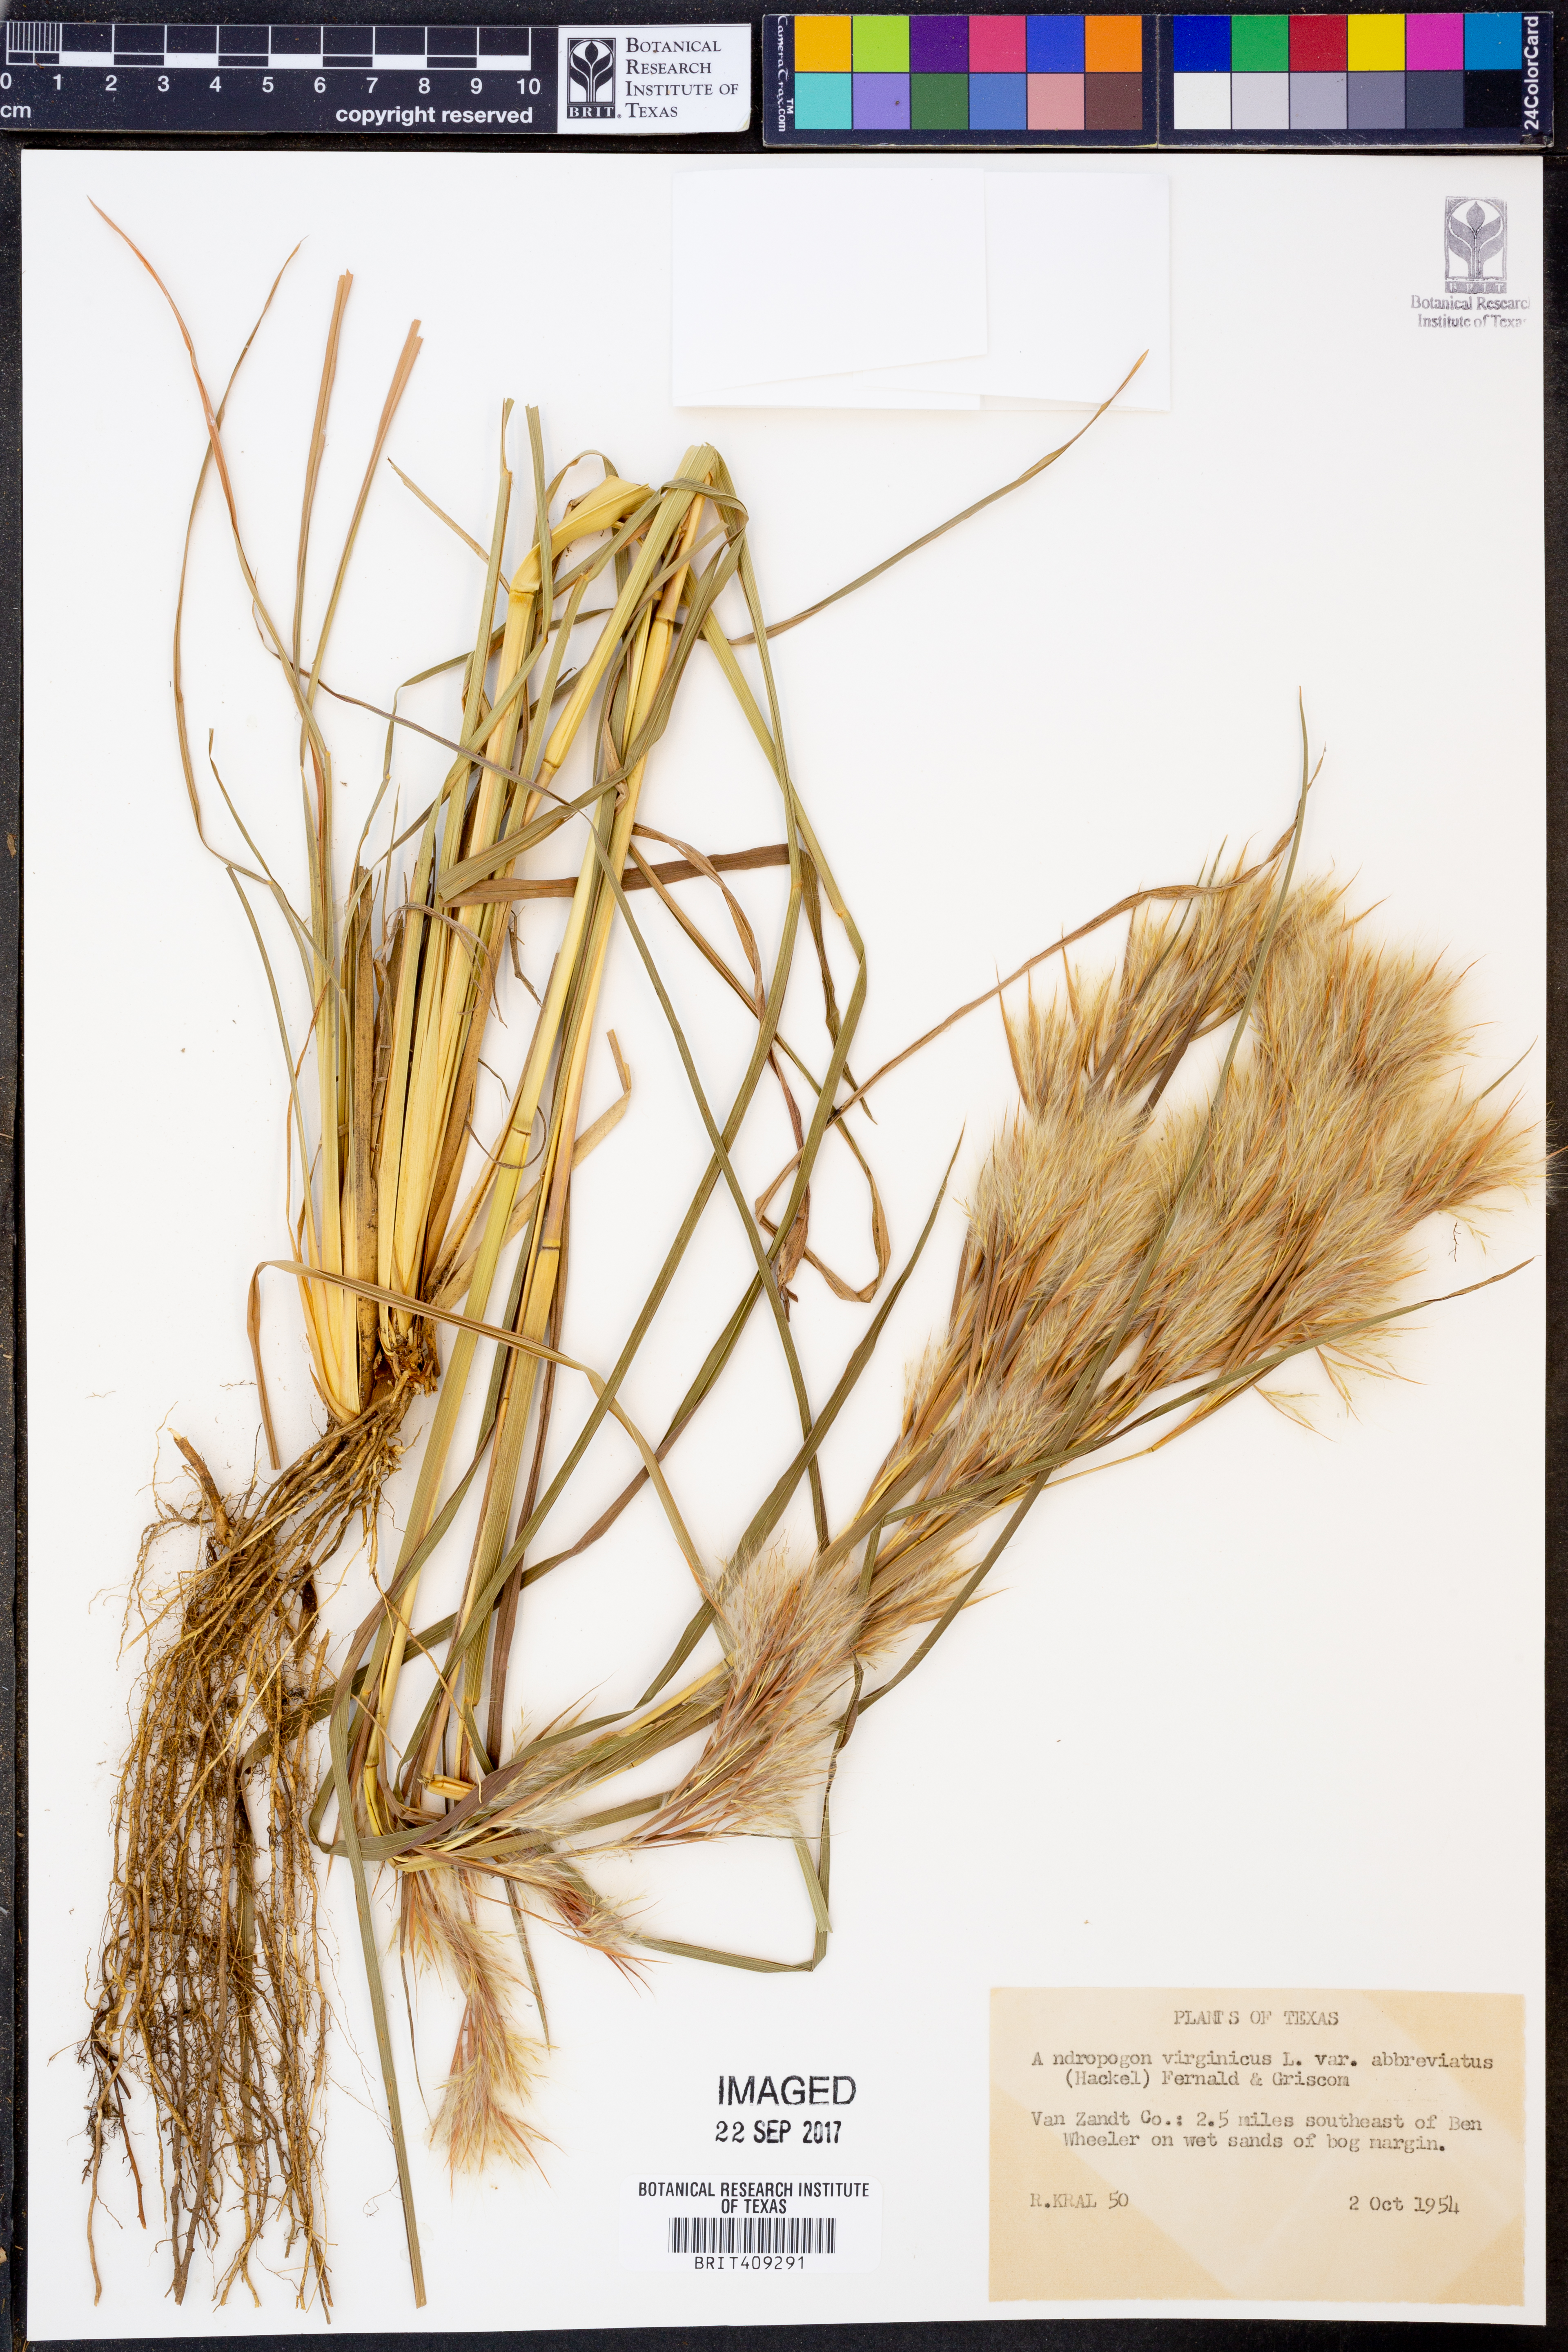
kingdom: Plantae
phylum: Tracheophyta
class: Liliopsida
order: Poales
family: Poaceae
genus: Andropogon
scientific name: Andropogon glomeratus
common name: Bushy beard grass
